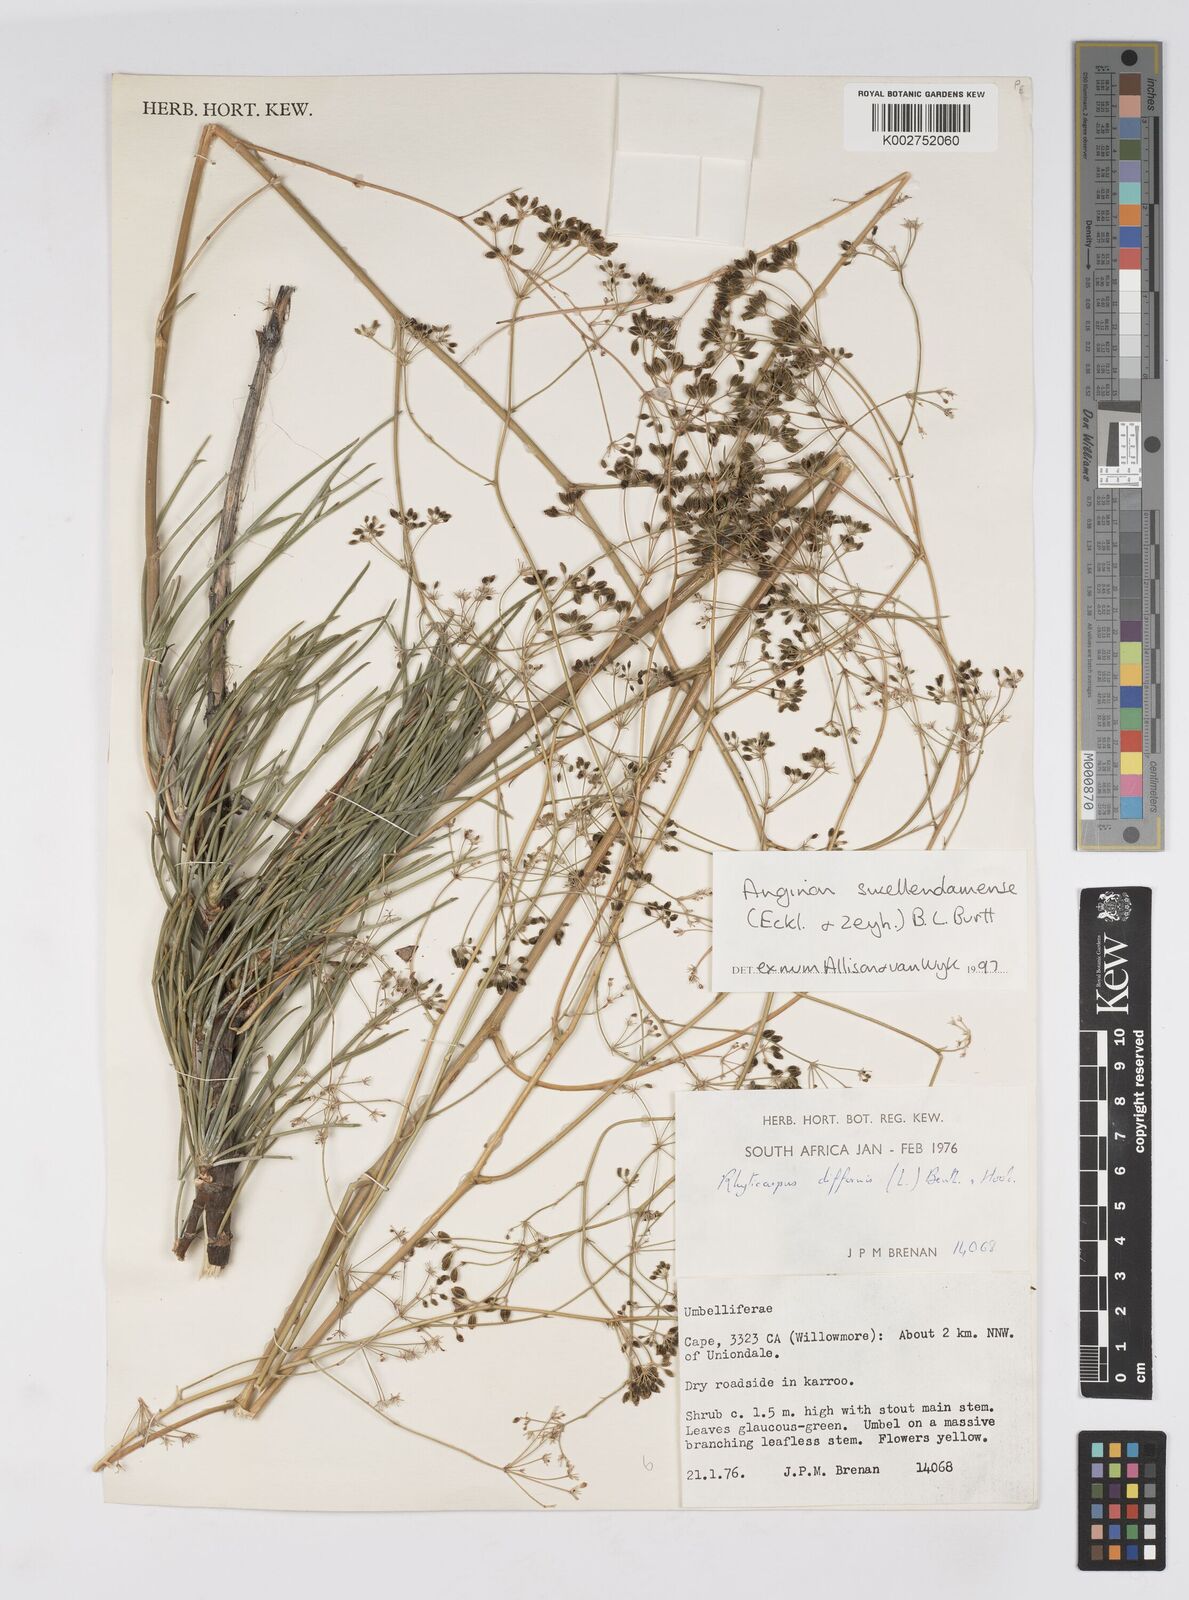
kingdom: Plantae
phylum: Tracheophyta
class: Magnoliopsida
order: Apiales
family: Apiaceae
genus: Anginon
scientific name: Anginon swellendamense
